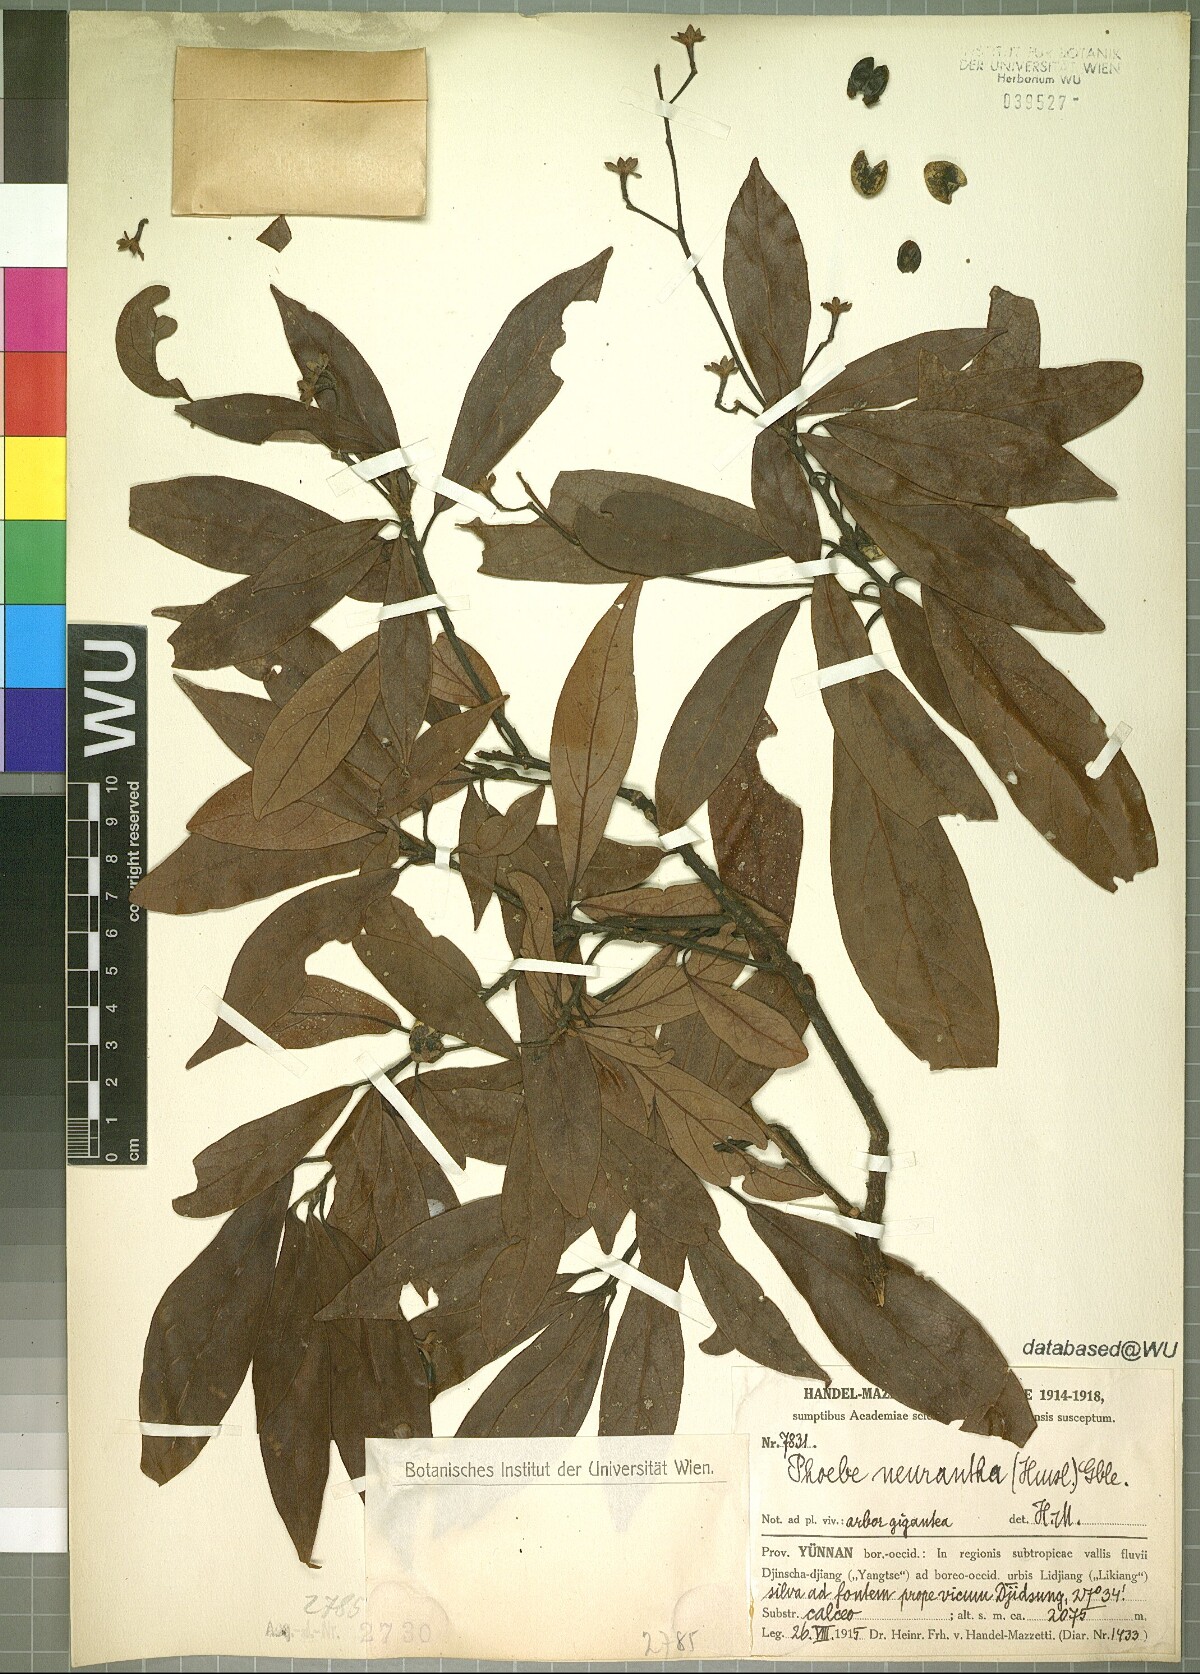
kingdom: Plantae
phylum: Tracheophyta
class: Magnoliopsida
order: Laurales
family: Lauraceae
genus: Phoebe
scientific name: Phoebe neurantha
